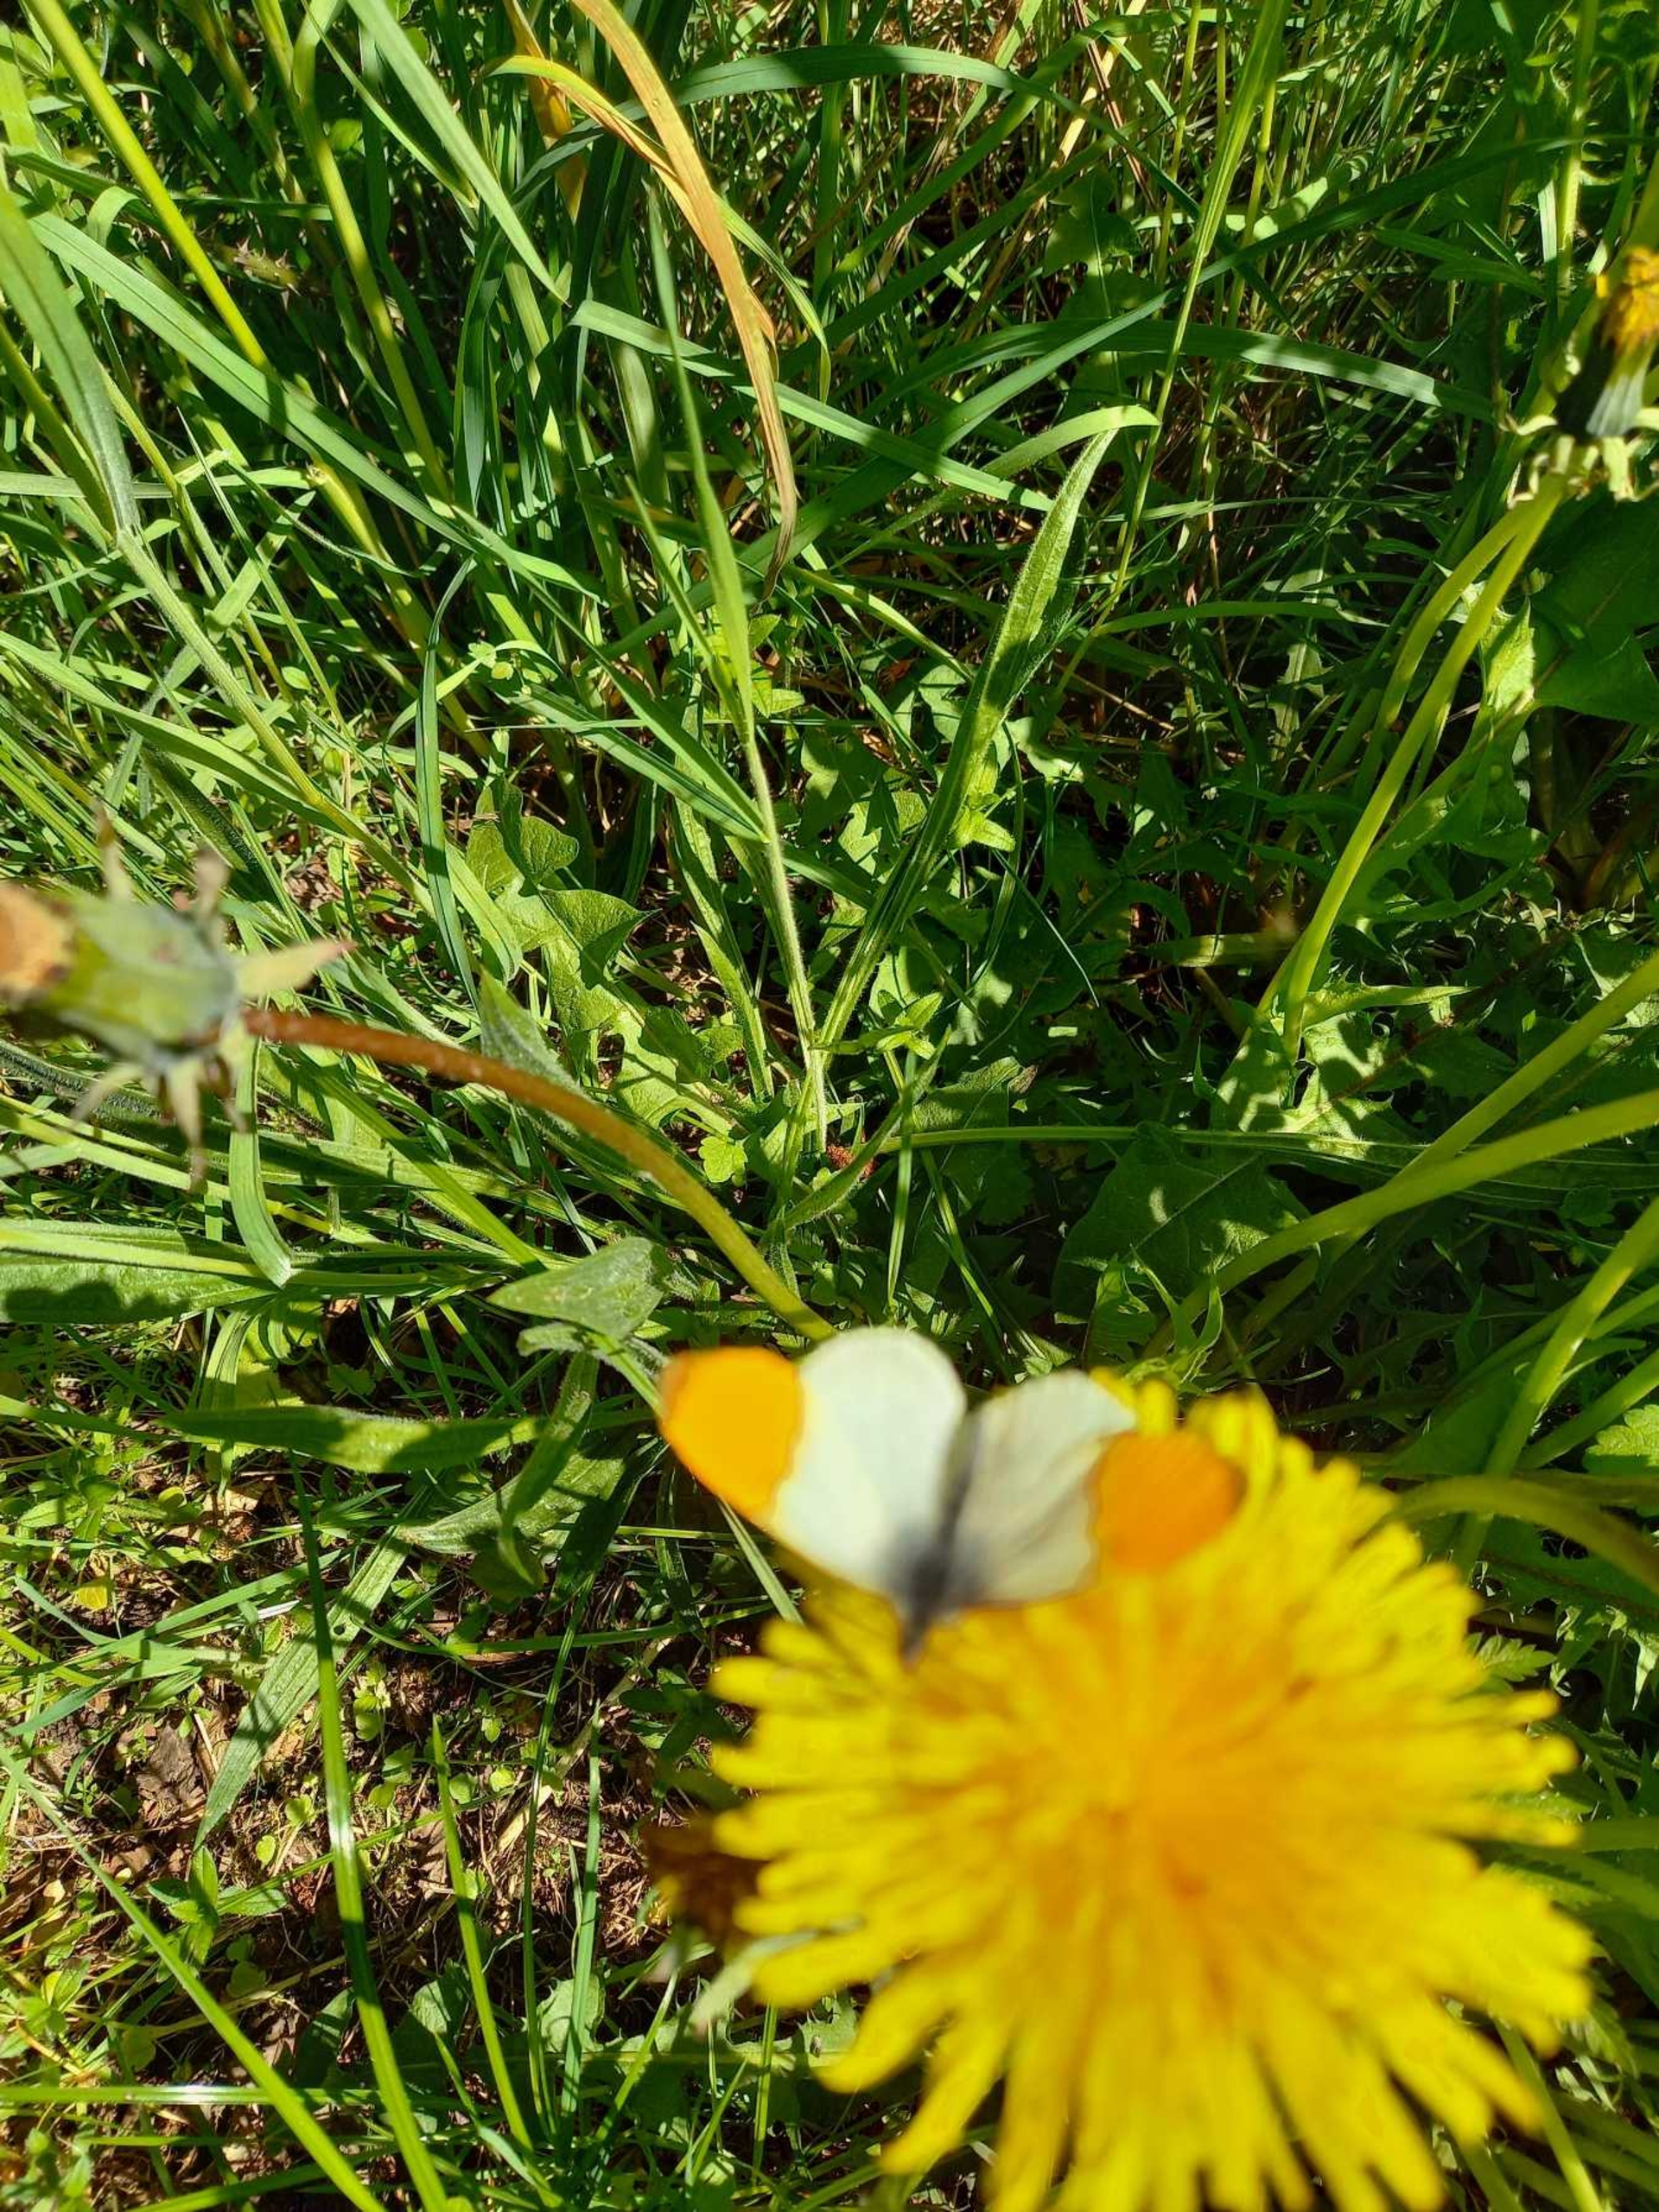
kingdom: Animalia
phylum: Arthropoda
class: Insecta
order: Lepidoptera
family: Pieridae
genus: Anthocharis
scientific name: Anthocharis cardamines
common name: Aurora
